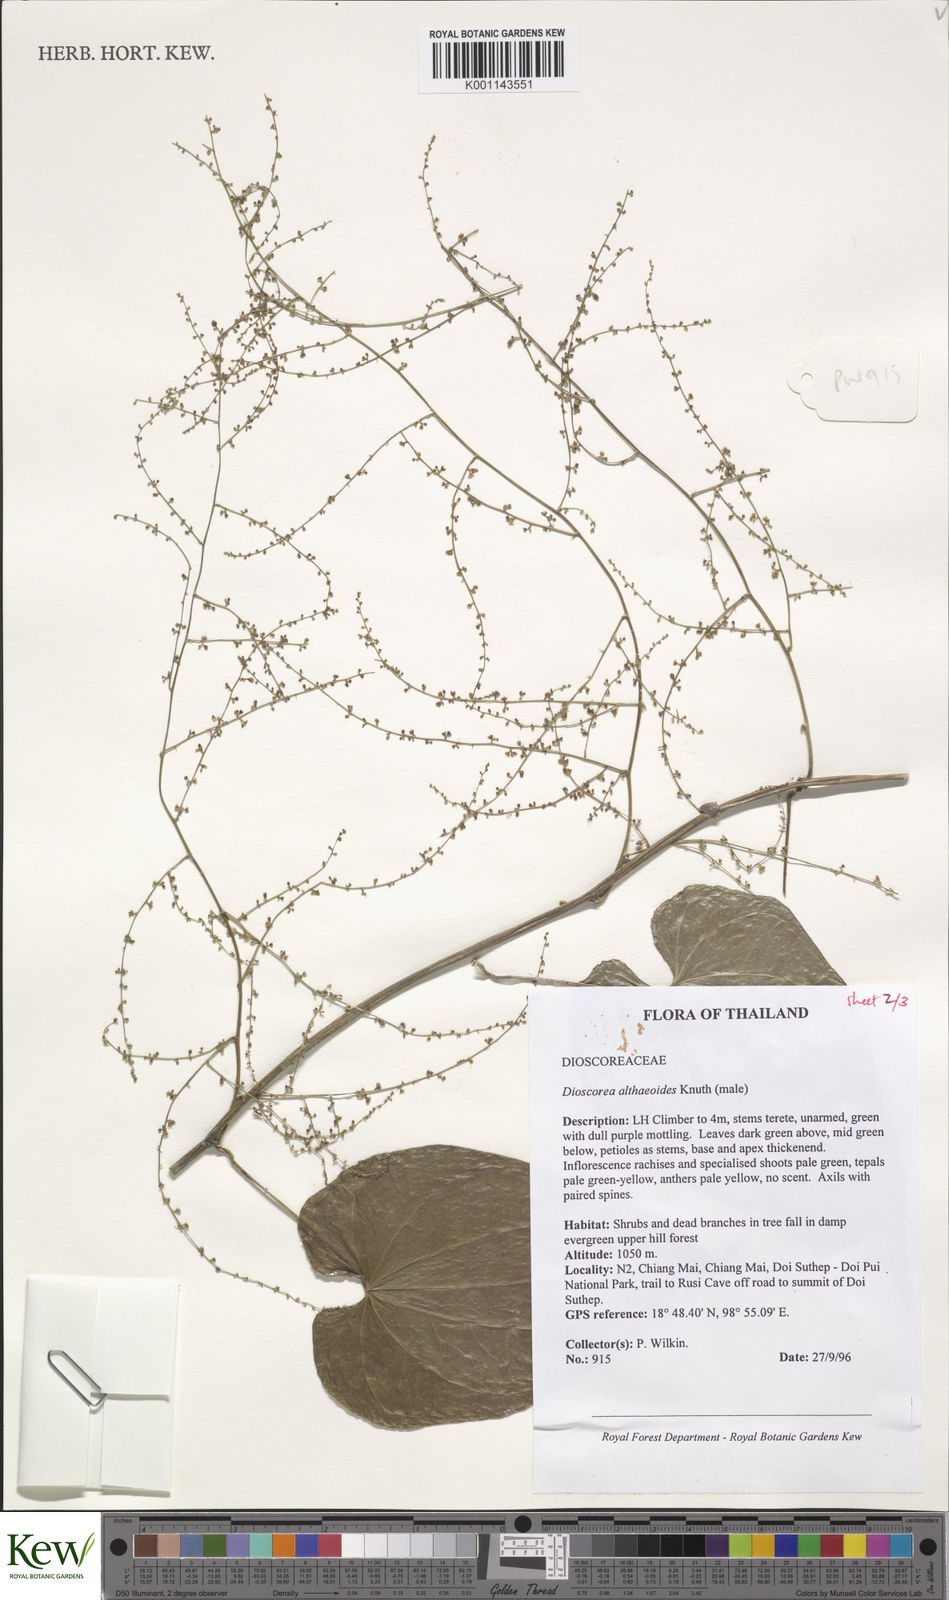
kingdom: Plantae
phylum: Tracheophyta
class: Liliopsida
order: Dioscoreales
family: Dioscoreaceae
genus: Dioscorea
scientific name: Dioscorea rockii
